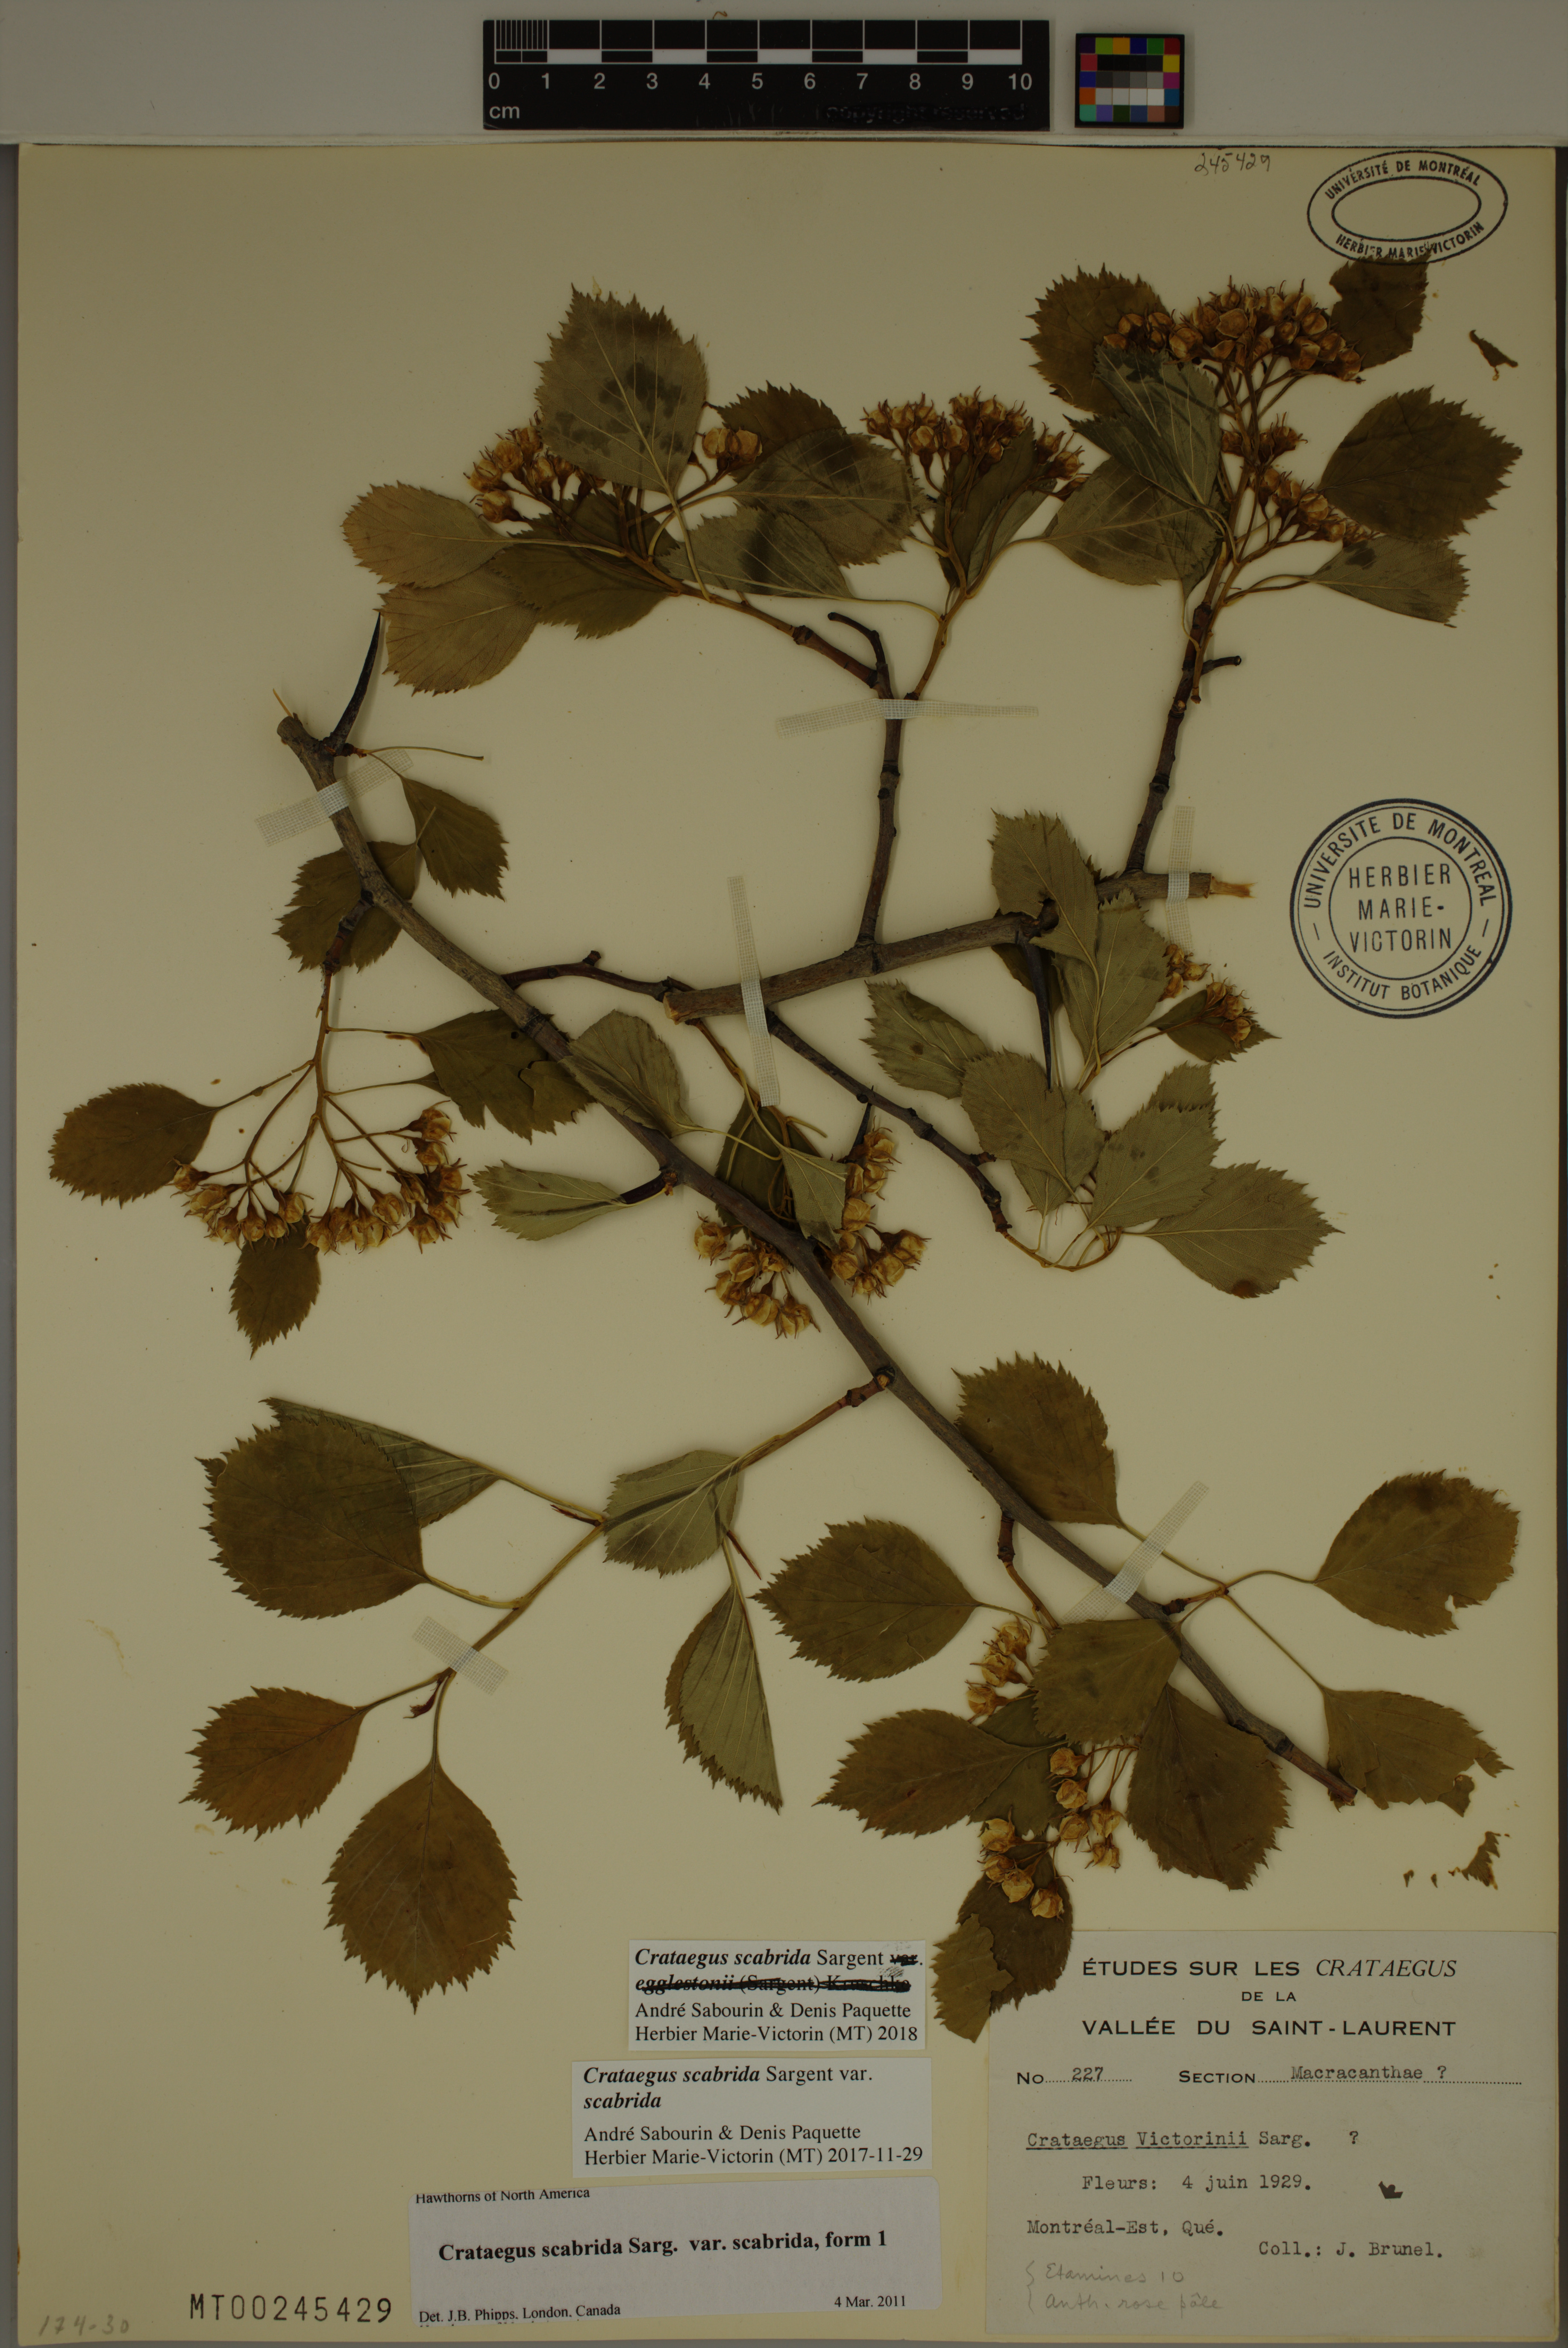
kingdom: Plantae
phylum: Tracheophyta
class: Magnoliopsida
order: Rosales
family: Rosaceae
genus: Crataegus
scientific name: Crataegus scabrida
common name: Rough hawthorn
